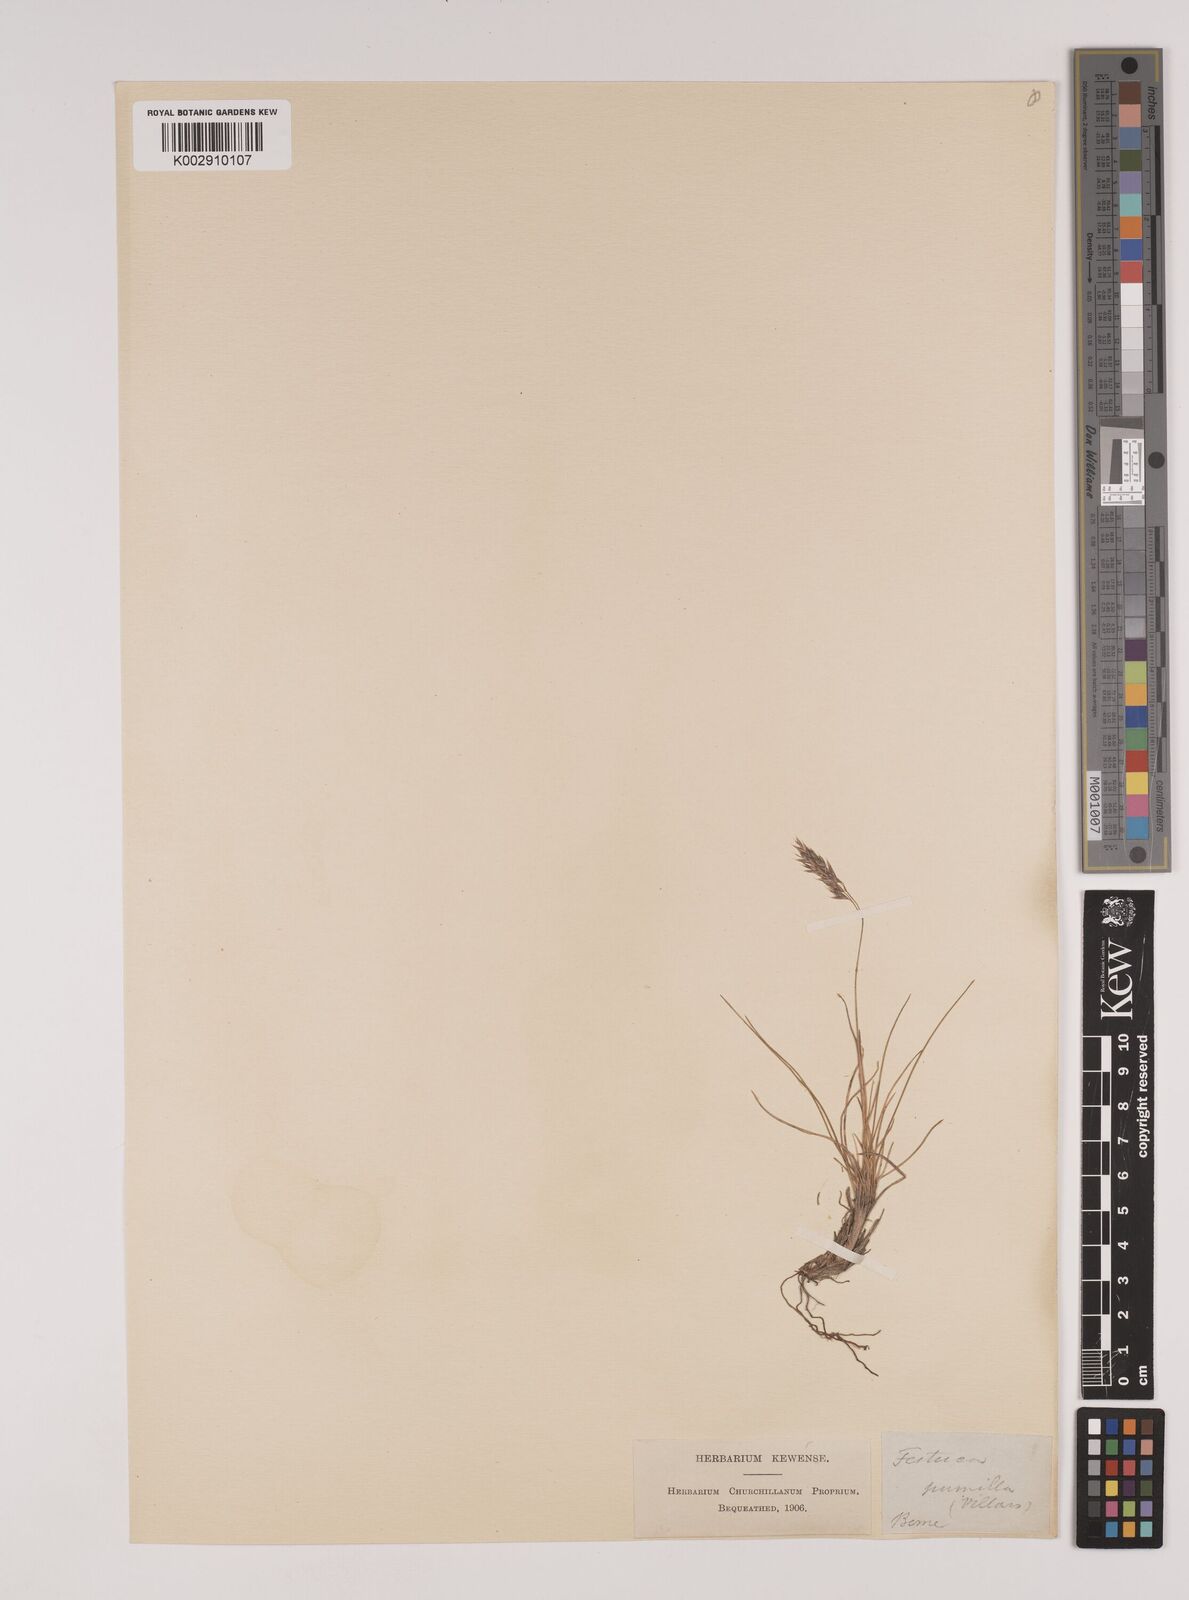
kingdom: Plantae
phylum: Tracheophyta
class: Liliopsida
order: Poales
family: Poaceae
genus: Festuca
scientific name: Festuca
